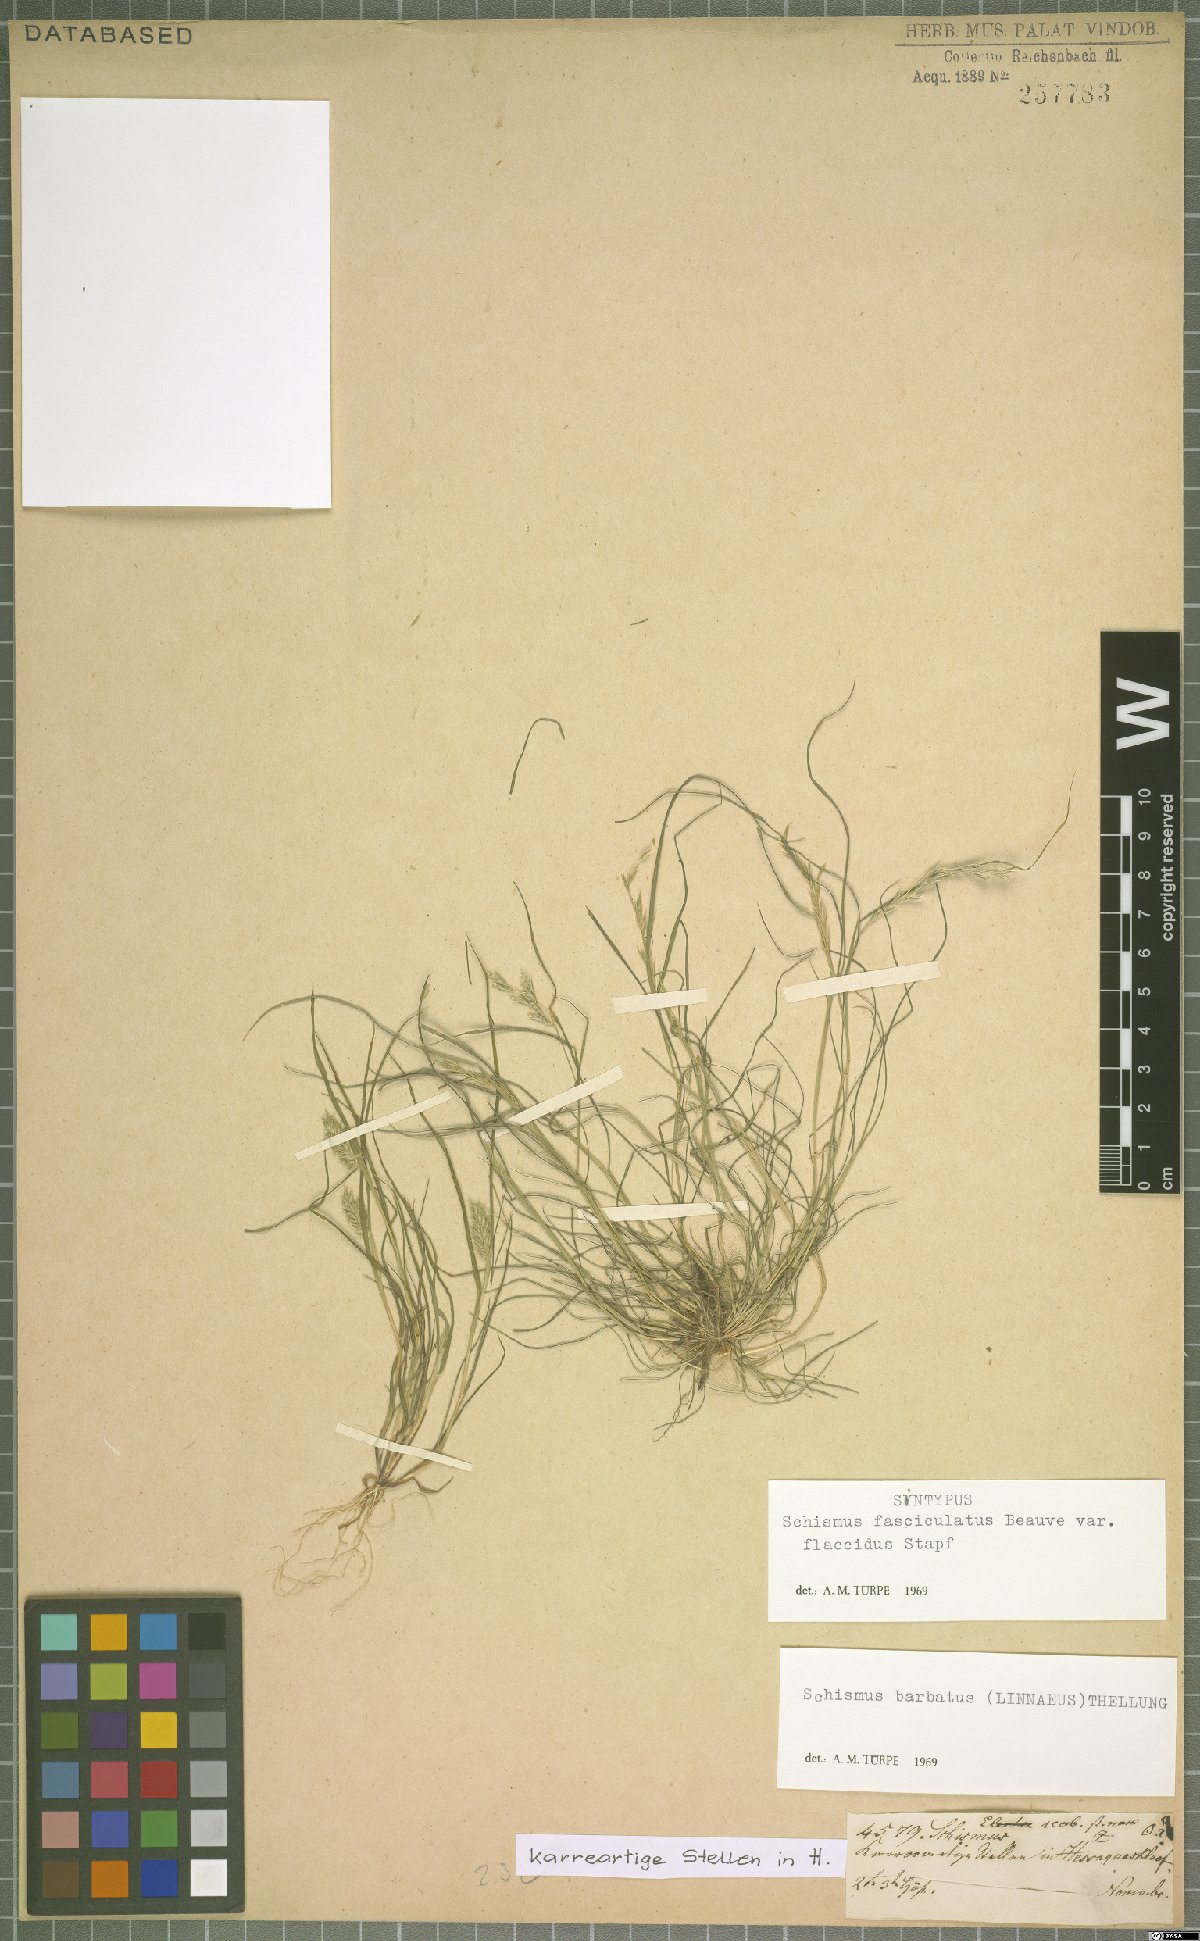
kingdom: Plantae
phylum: Tracheophyta
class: Liliopsida
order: Poales
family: Poaceae
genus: Schismus
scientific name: Schismus barbatus
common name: Kelch-grass
